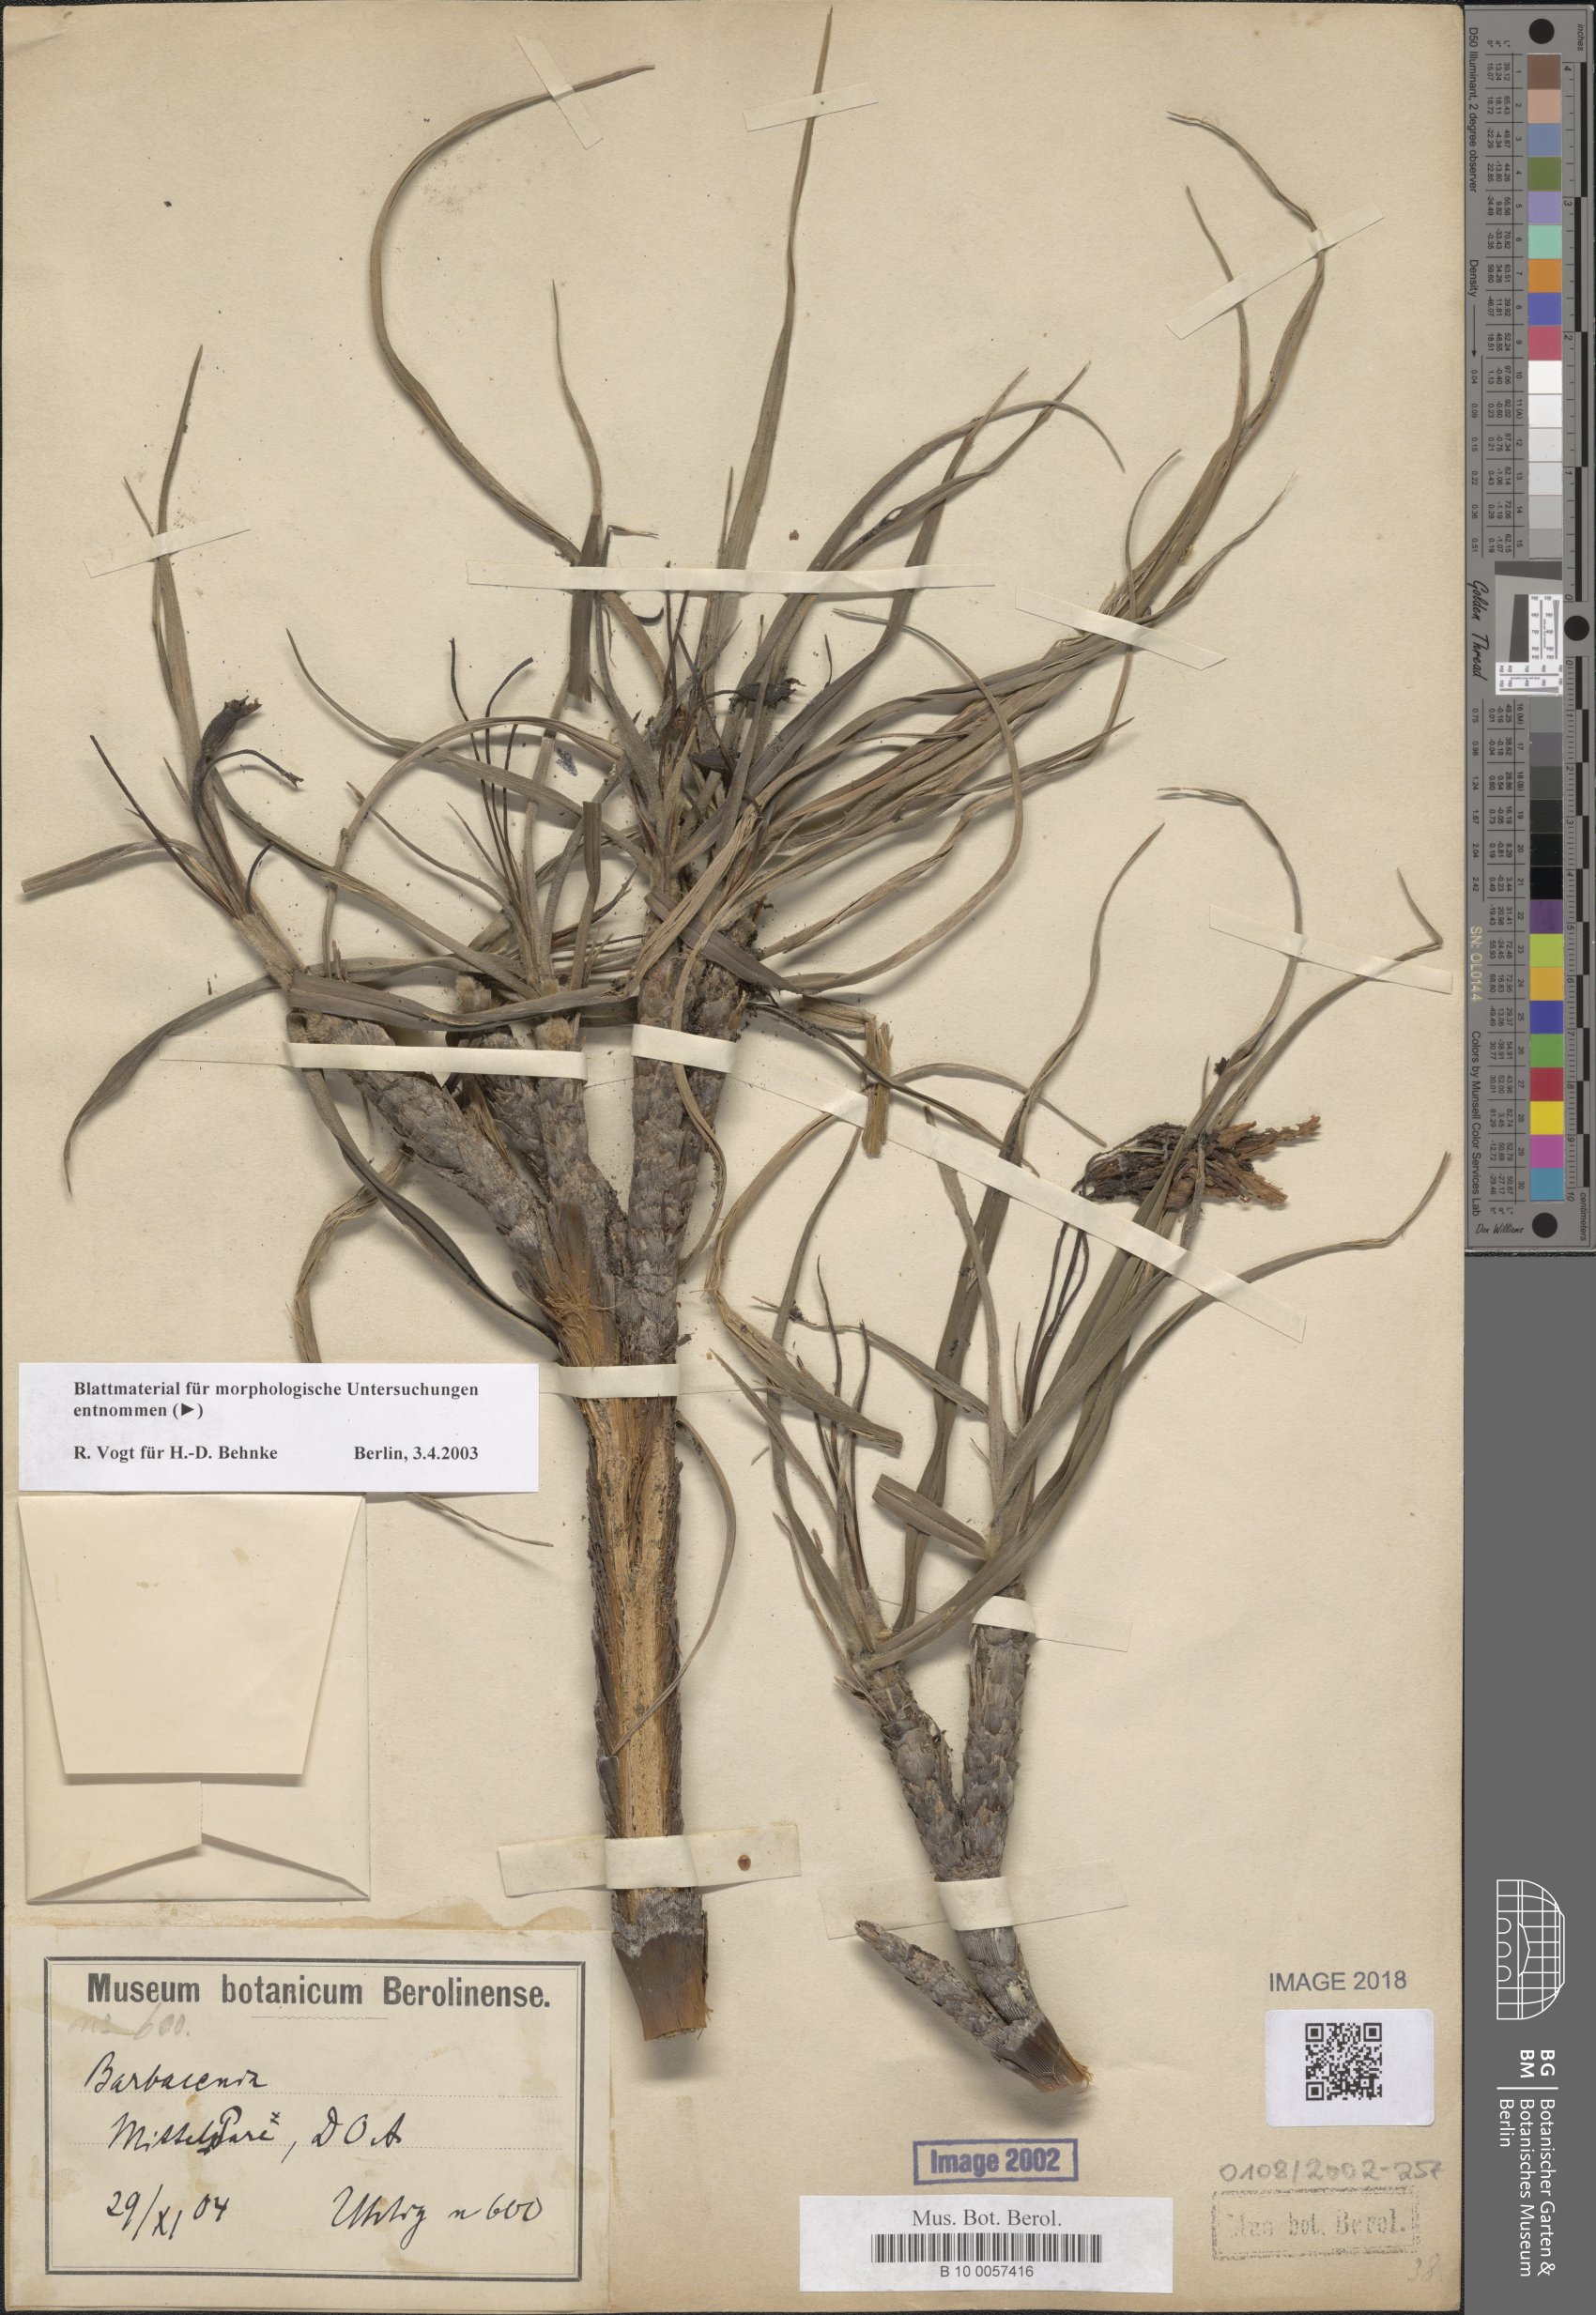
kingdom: Plantae
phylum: Tracheophyta
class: Liliopsida
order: Pandanales
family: Velloziaceae
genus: Xerophyta
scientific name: Xerophyta
